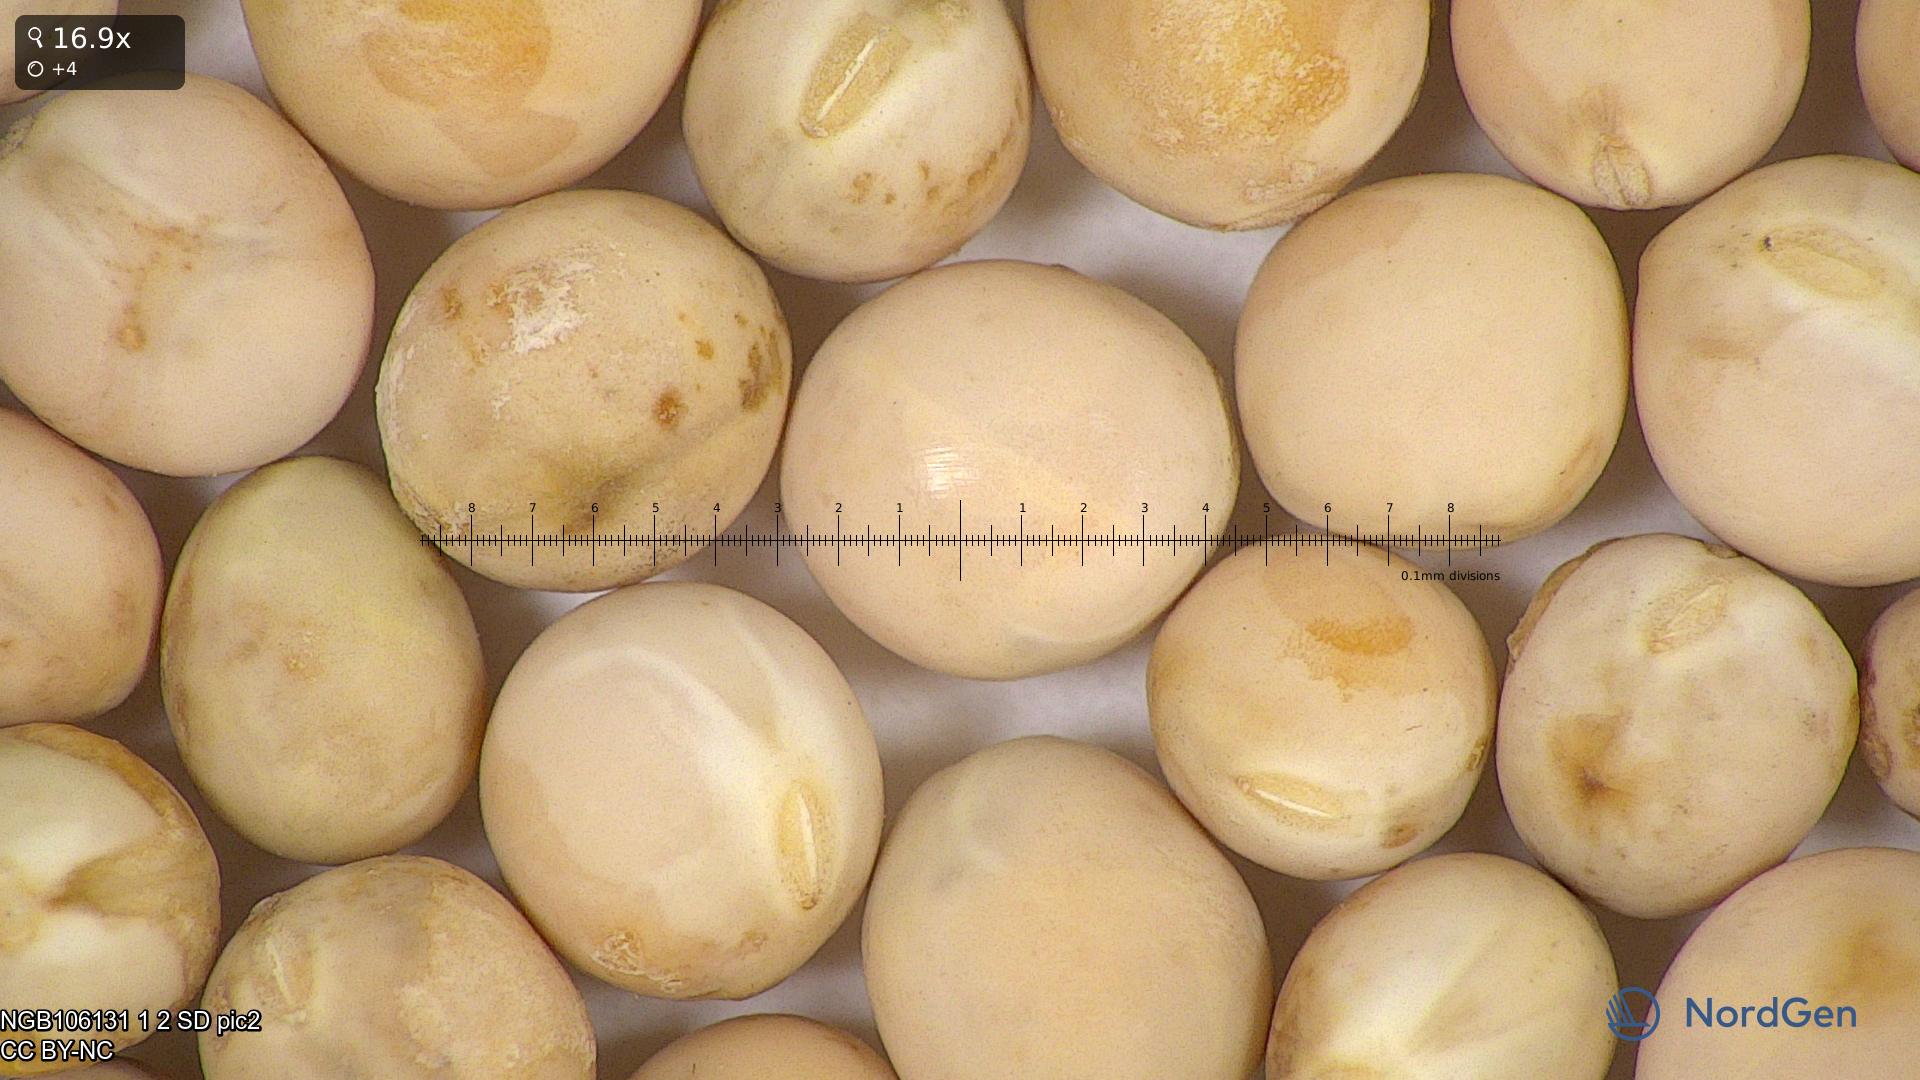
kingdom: Plantae
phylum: Tracheophyta
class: Magnoliopsida
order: Fabales
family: Fabaceae
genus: Lathyrus
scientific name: Lathyrus oleraceus
